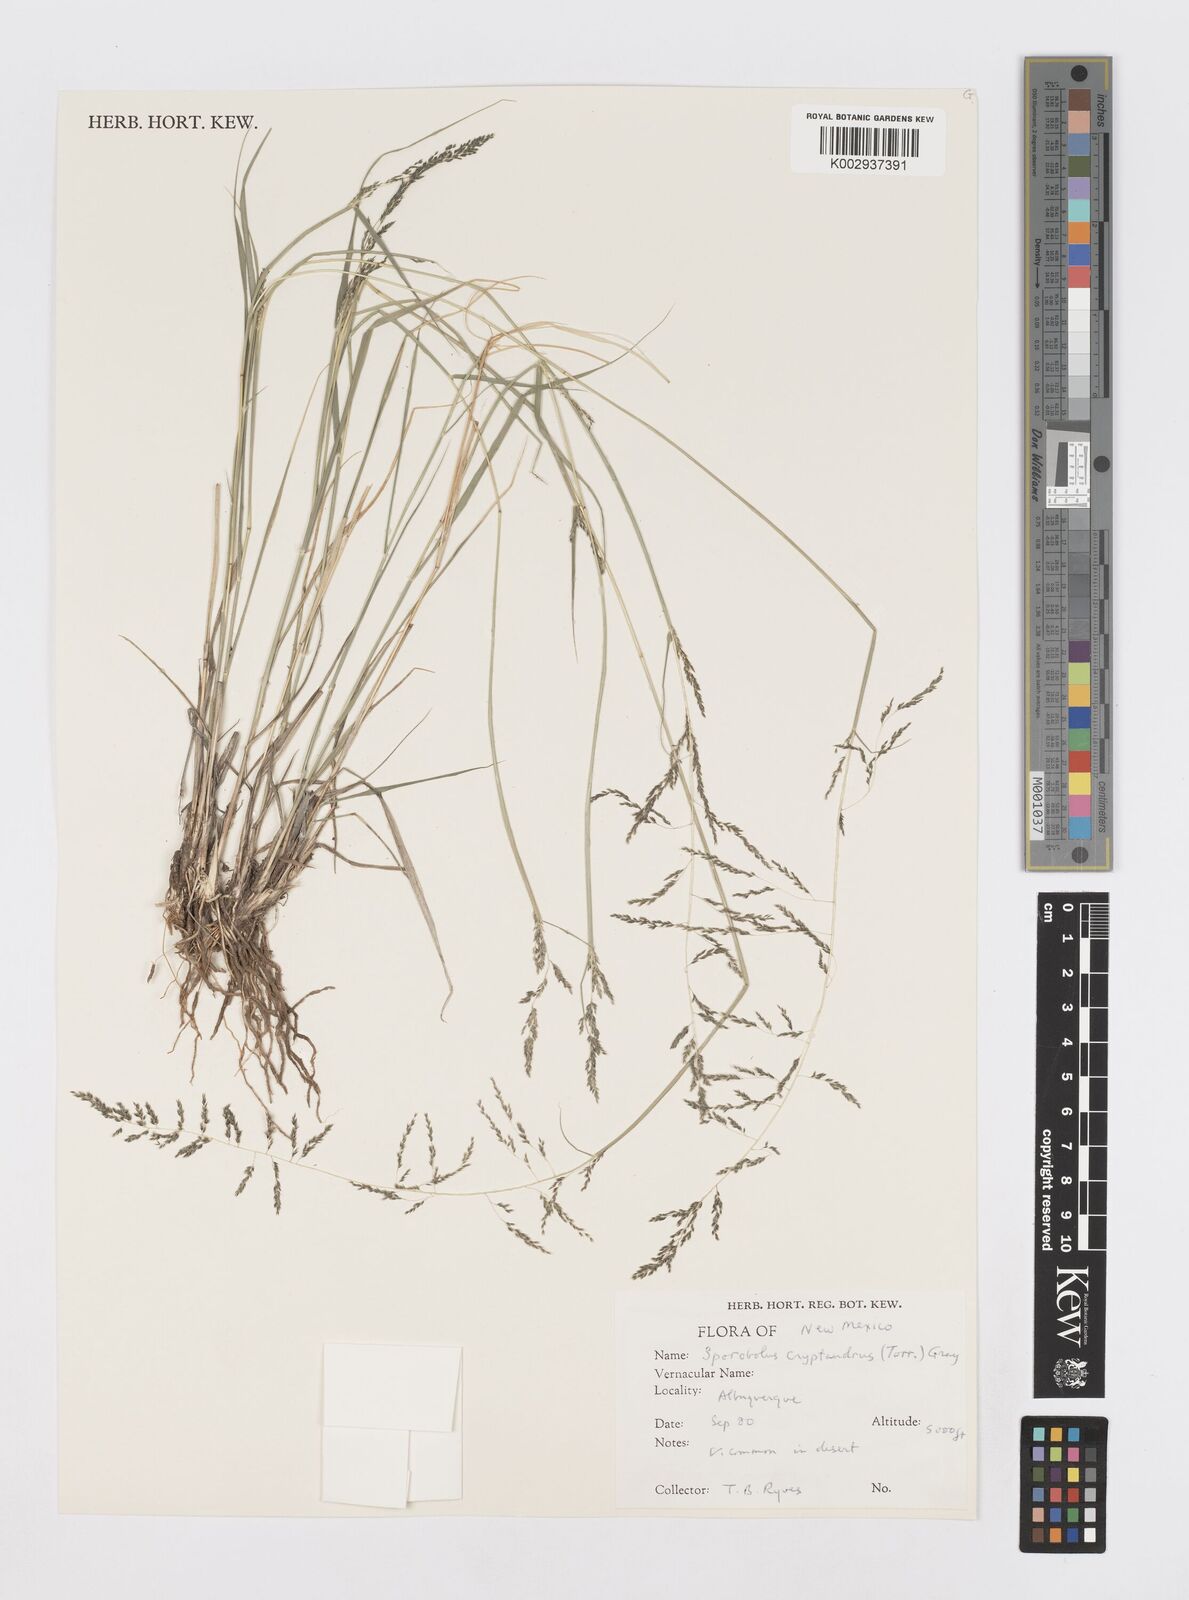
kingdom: Plantae
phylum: Tracheophyta
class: Liliopsida
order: Poales
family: Poaceae
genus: Sporobolus
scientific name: Sporobolus cryptandrus
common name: Sand dropseed
